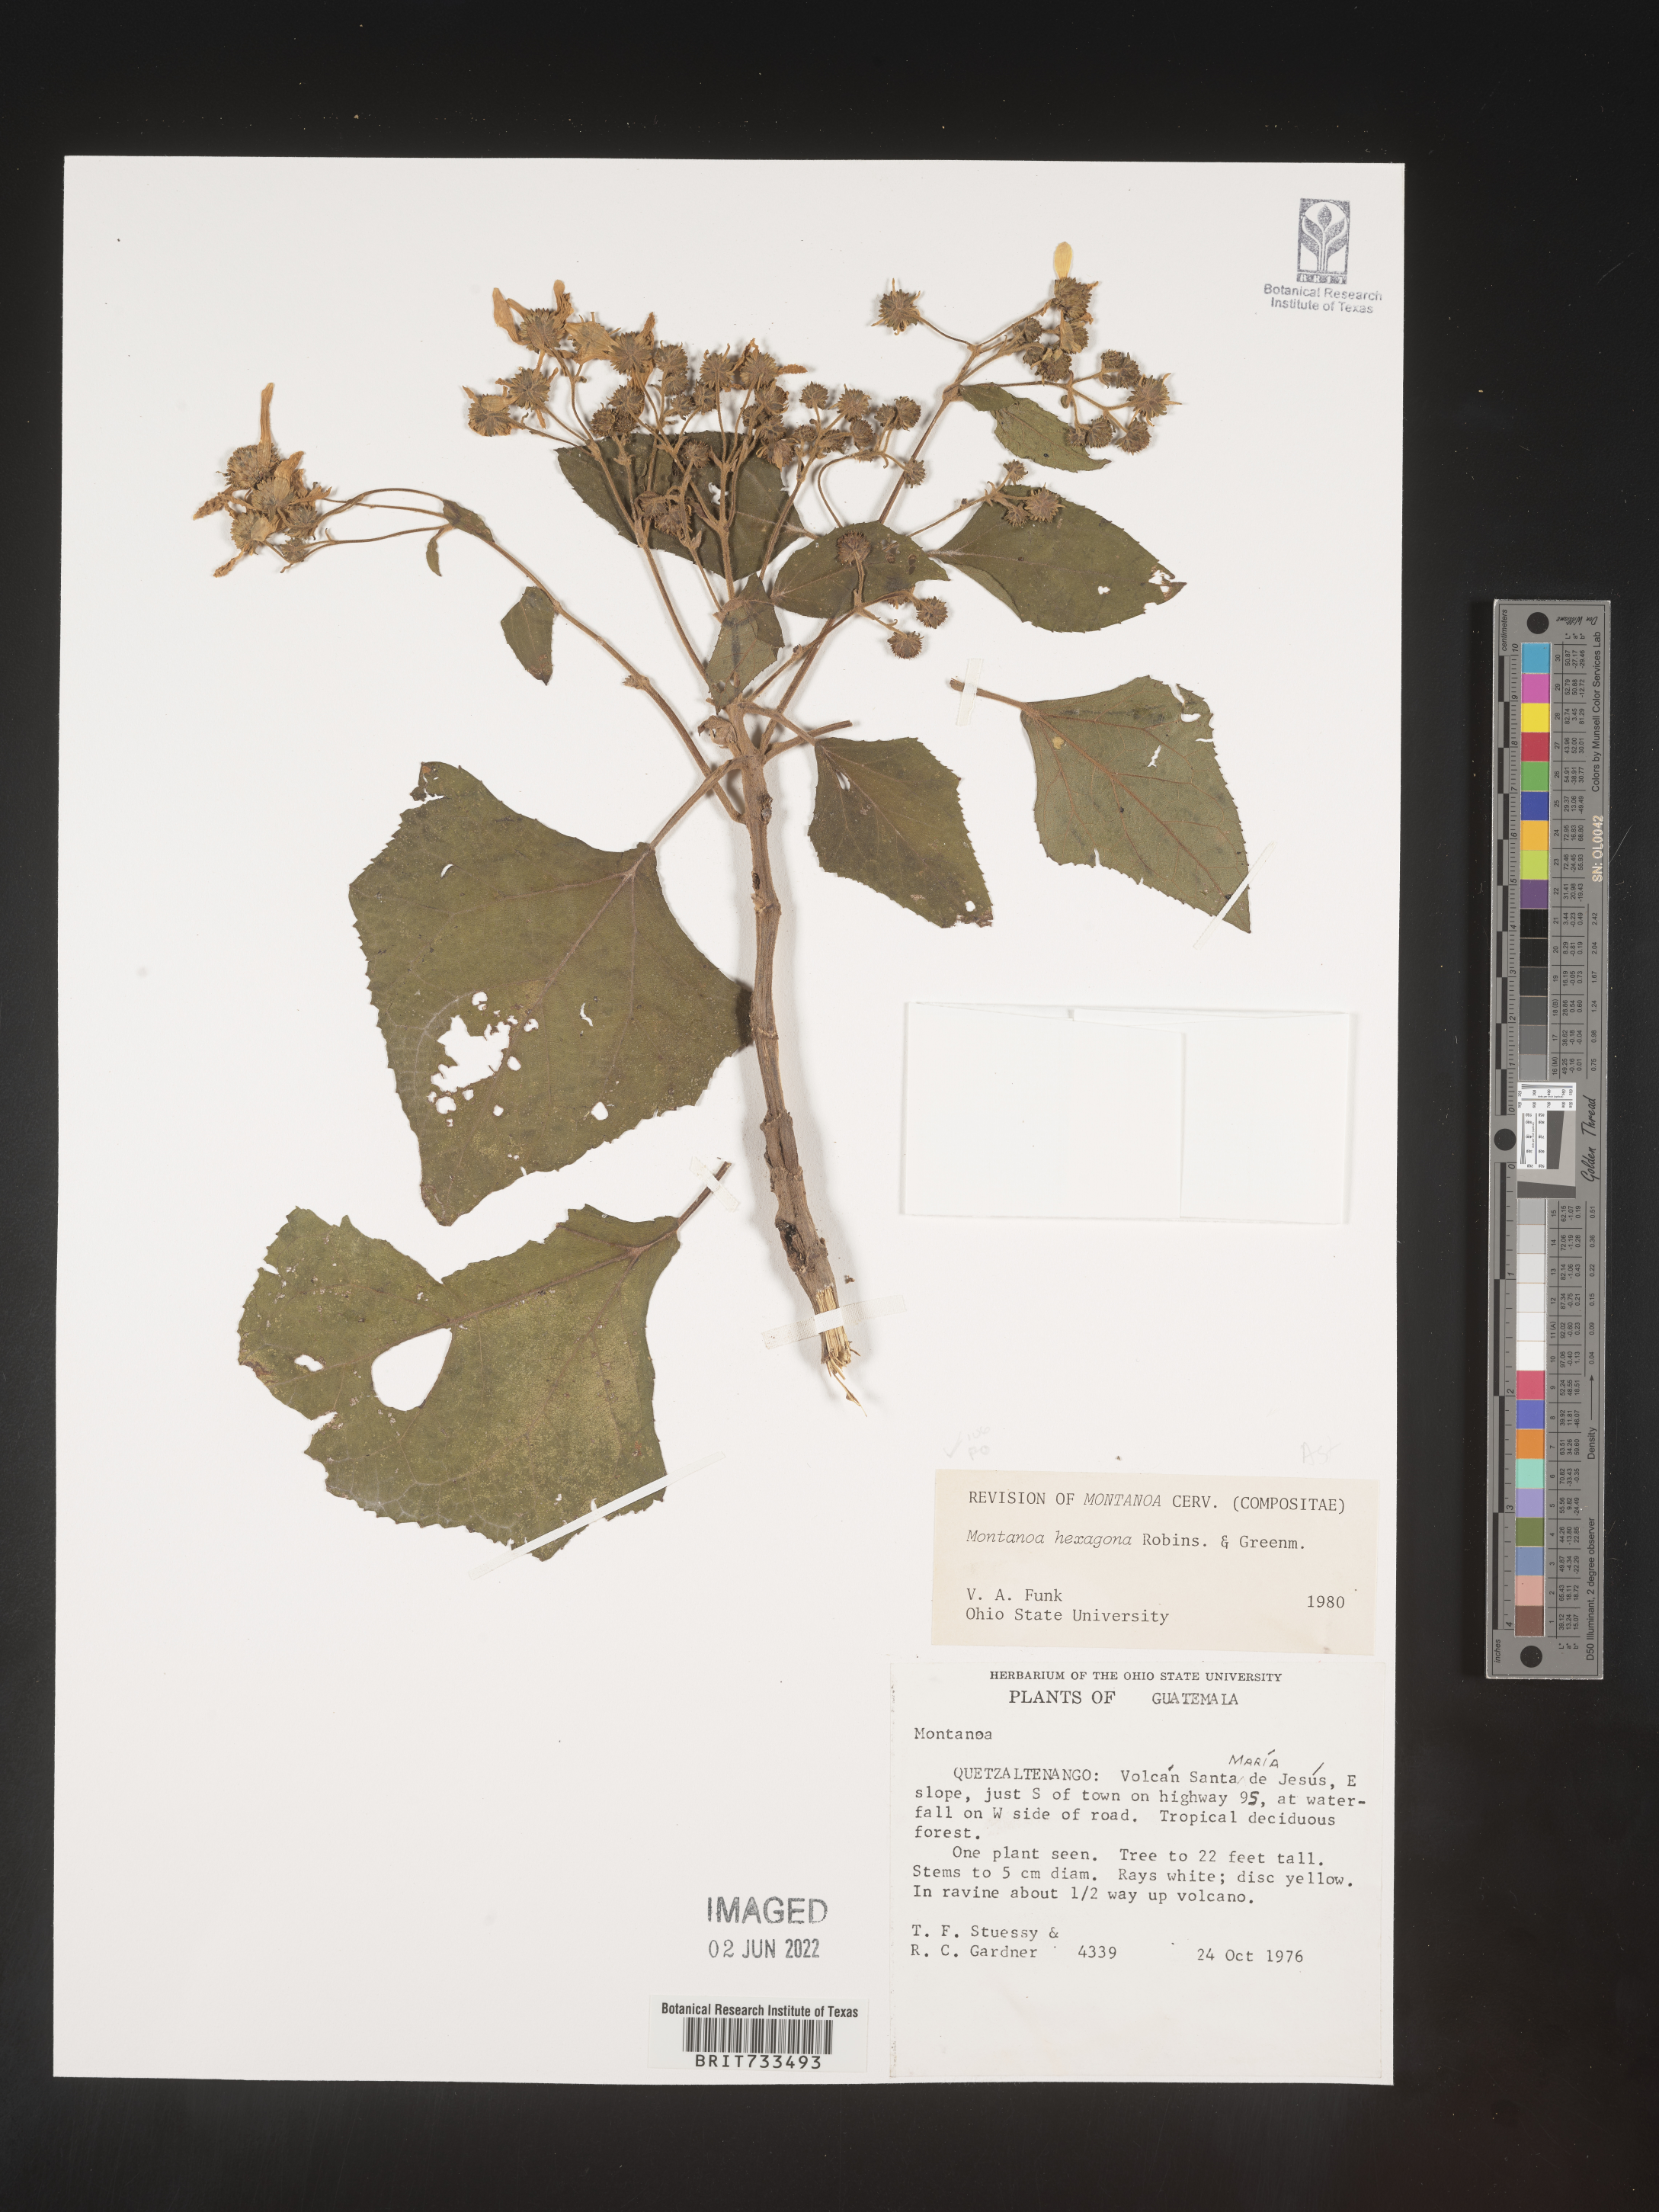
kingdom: Plantae
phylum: Tracheophyta
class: Magnoliopsida
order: Asterales
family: Asteraceae
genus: Montanoa
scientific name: Montanoa
